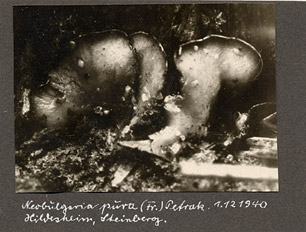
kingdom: Fungi
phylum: Ascomycota
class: Leotiomycetes
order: Helotiales
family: Gelatinodiscaceae
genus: Neobulgaria
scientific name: Neobulgaria pura
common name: Beech jelly-disc
